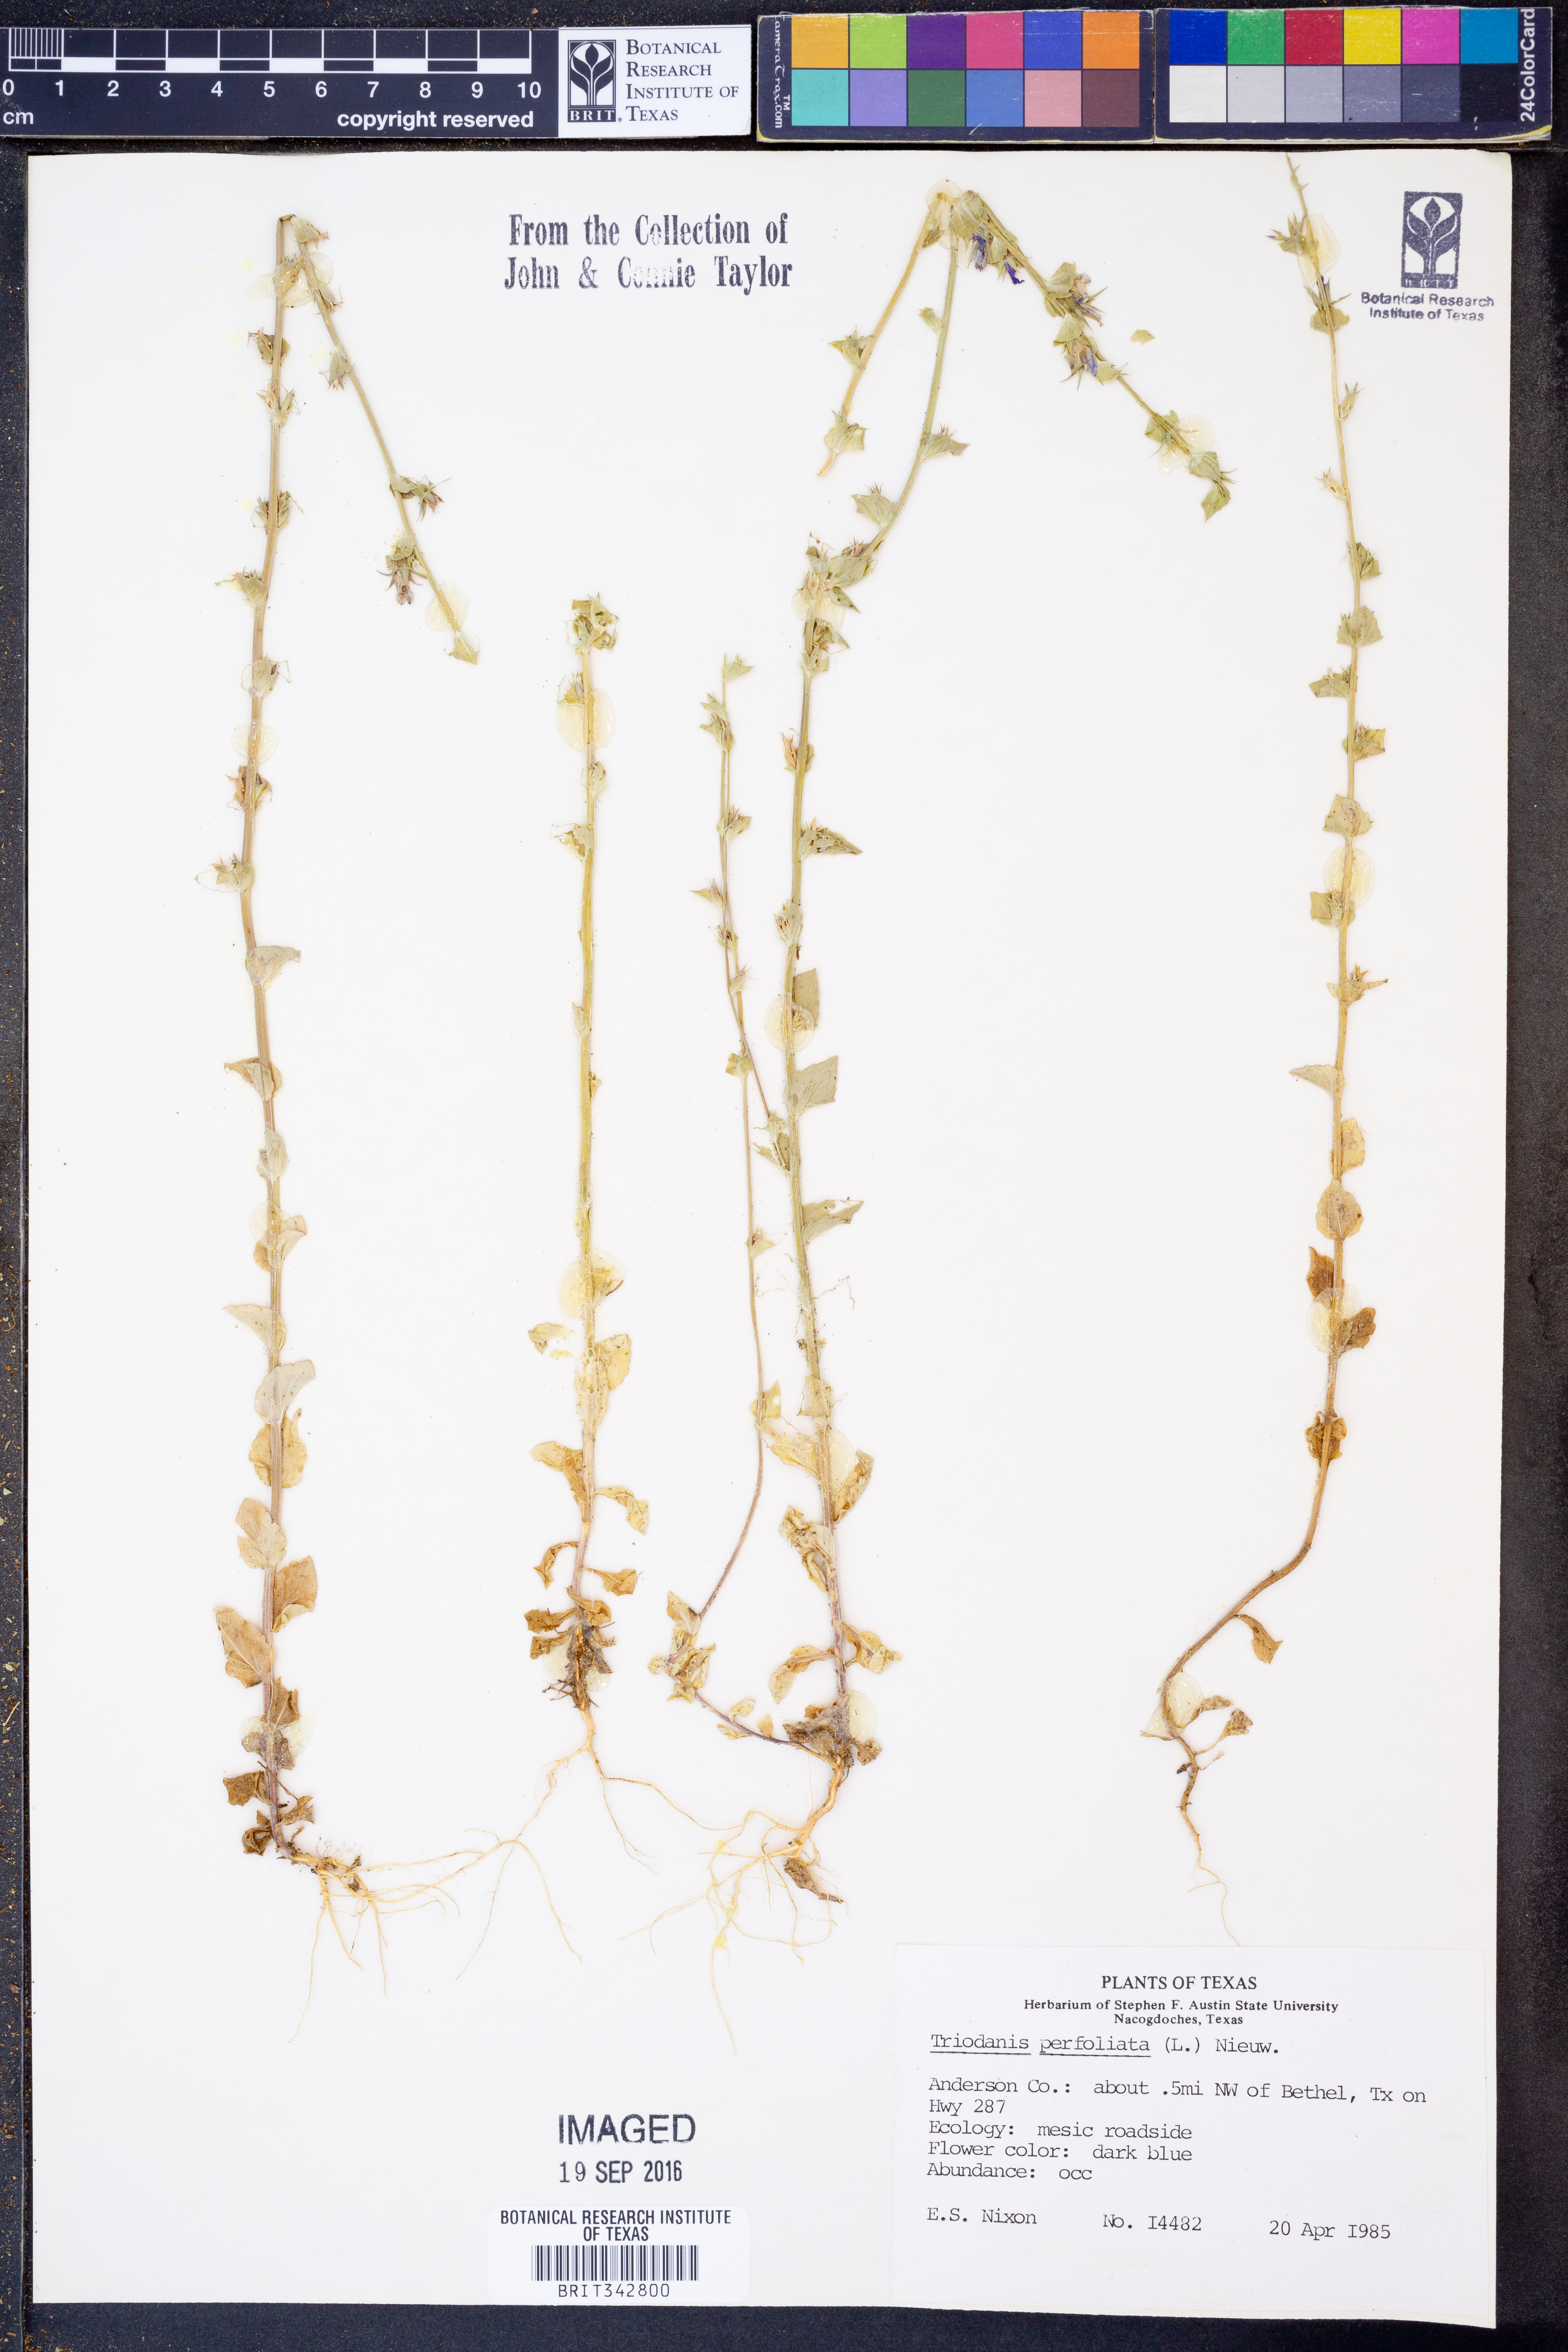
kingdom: Plantae
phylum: Tracheophyta
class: Magnoliopsida
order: Asterales
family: Campanulaceae
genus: Triodanis
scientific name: Triodanis perfoliata
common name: Clasping venus' looking-glass
